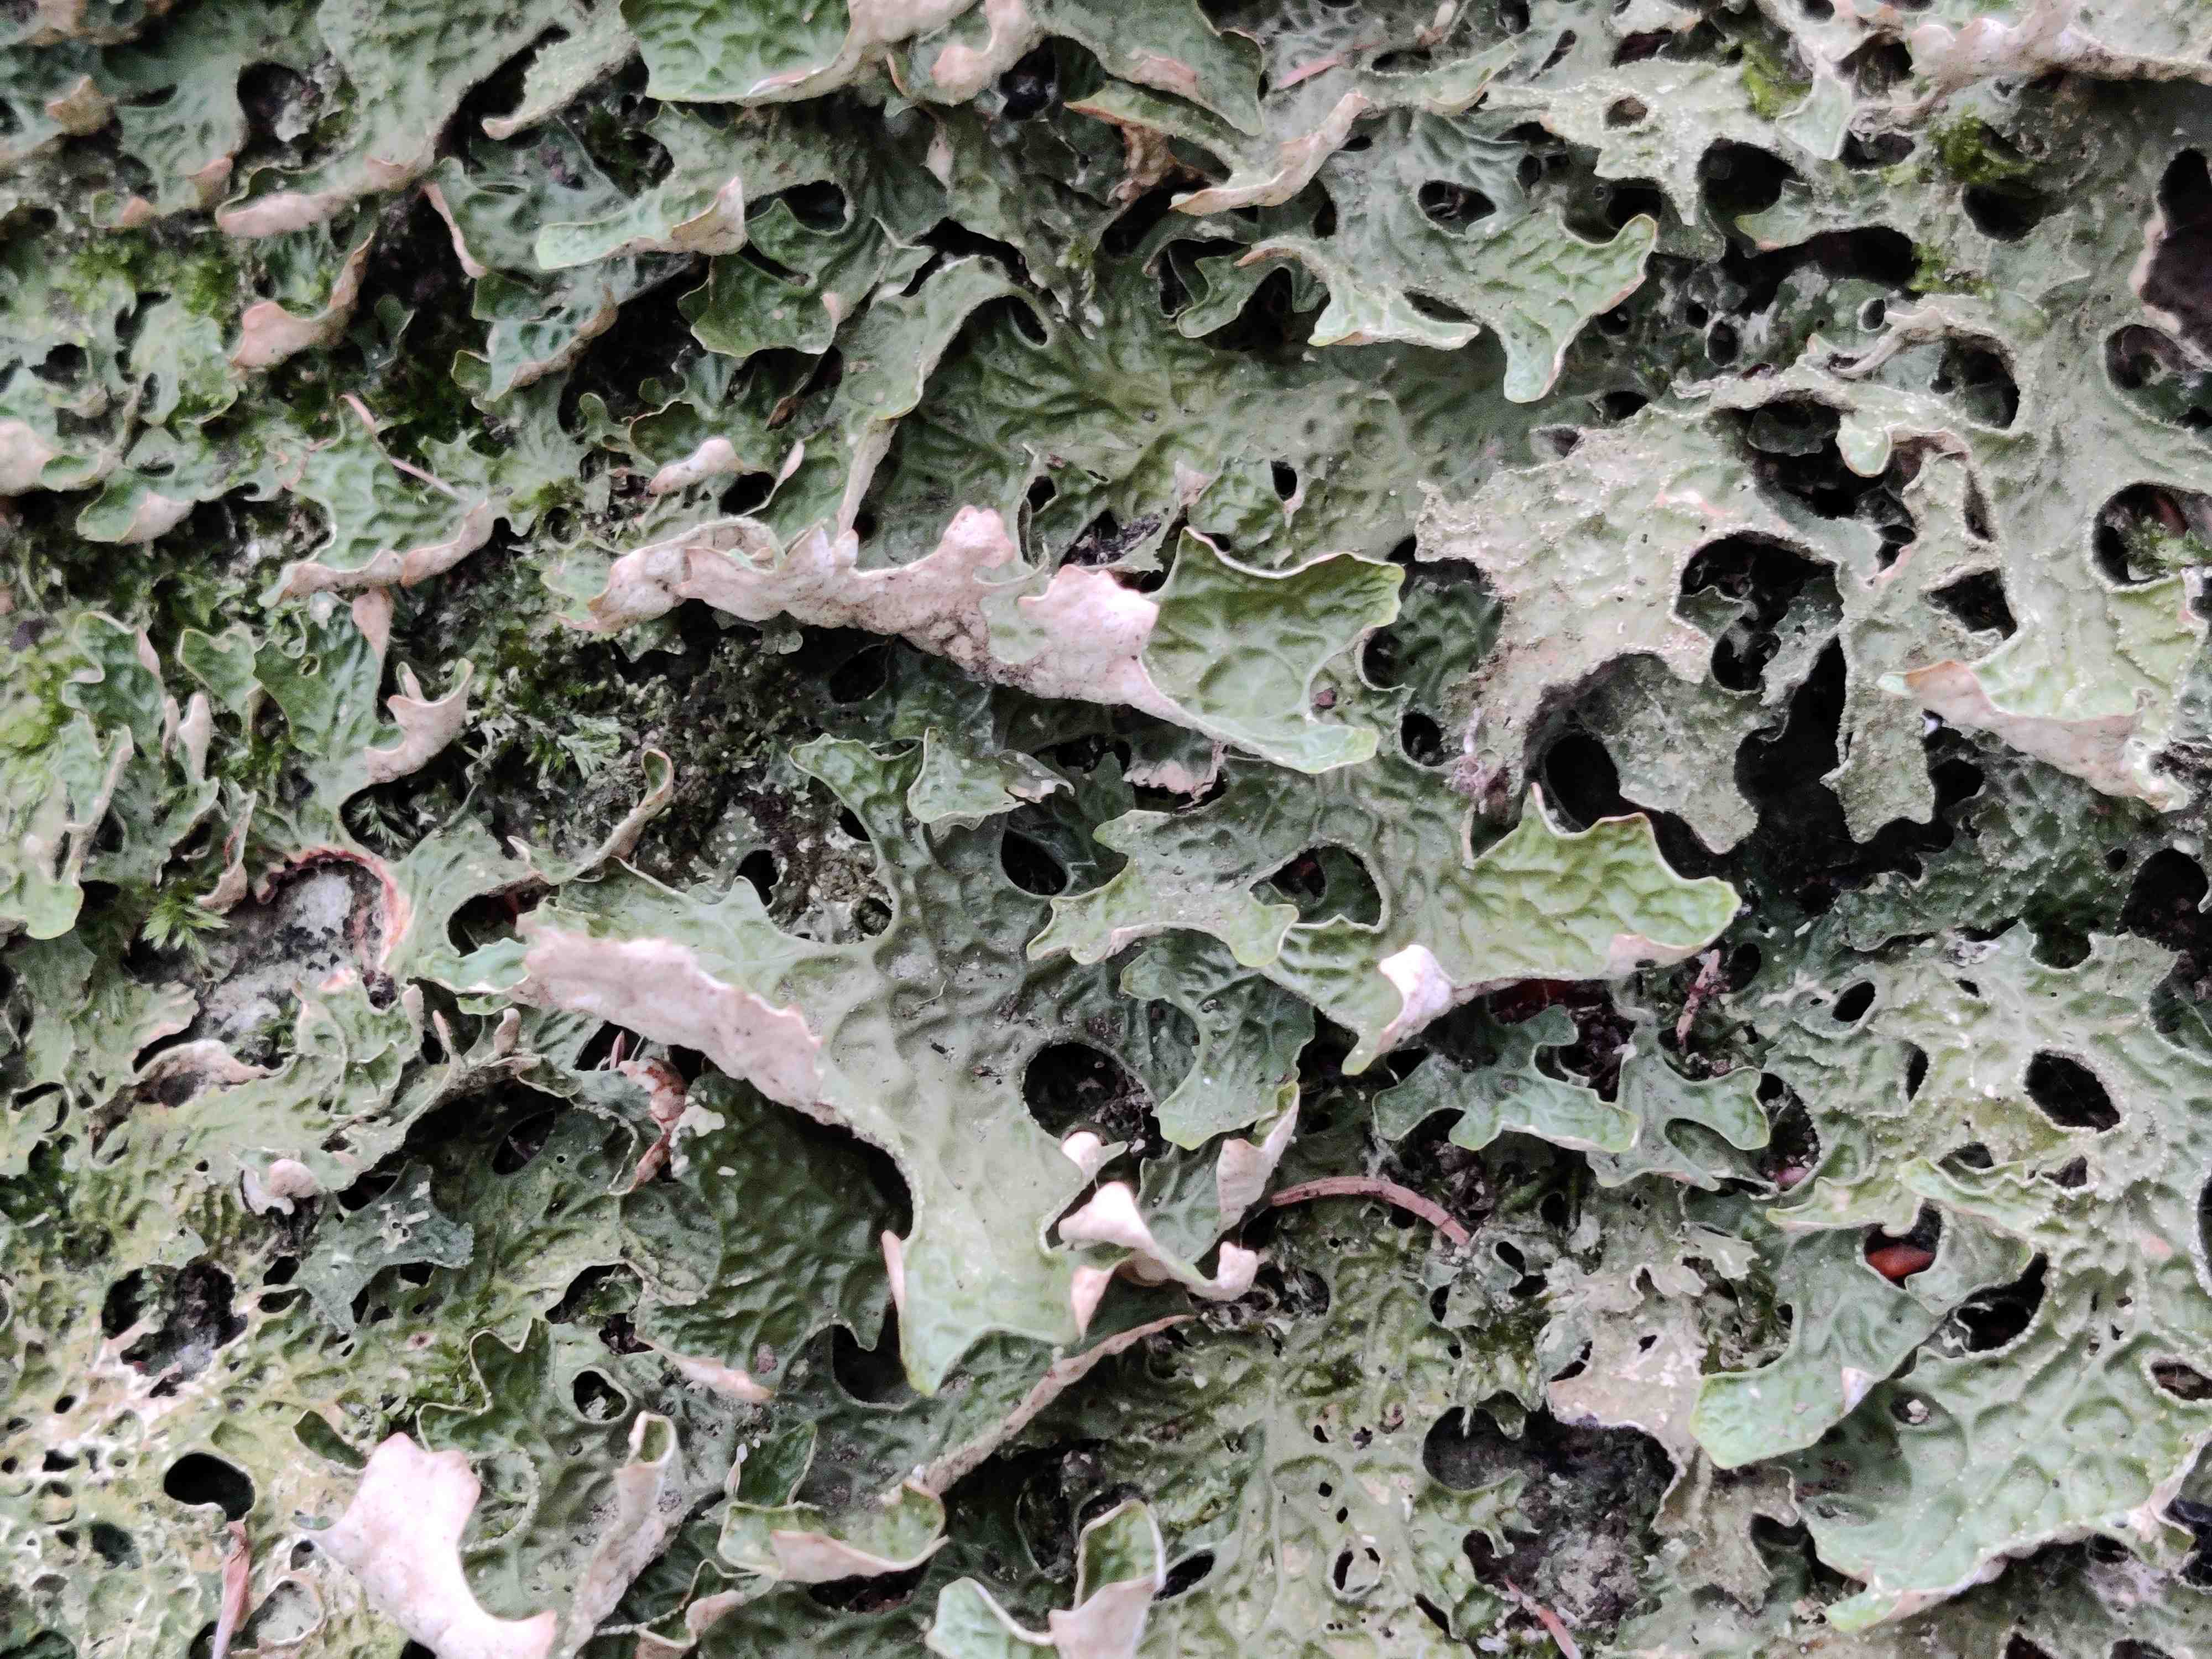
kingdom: Fungi
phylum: Ascomycota
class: Lecanoromycetes
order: Peltigerales
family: Lobariaceae
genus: Lobaria
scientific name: Lobaria pulmonaria
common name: almindelig lungelav
